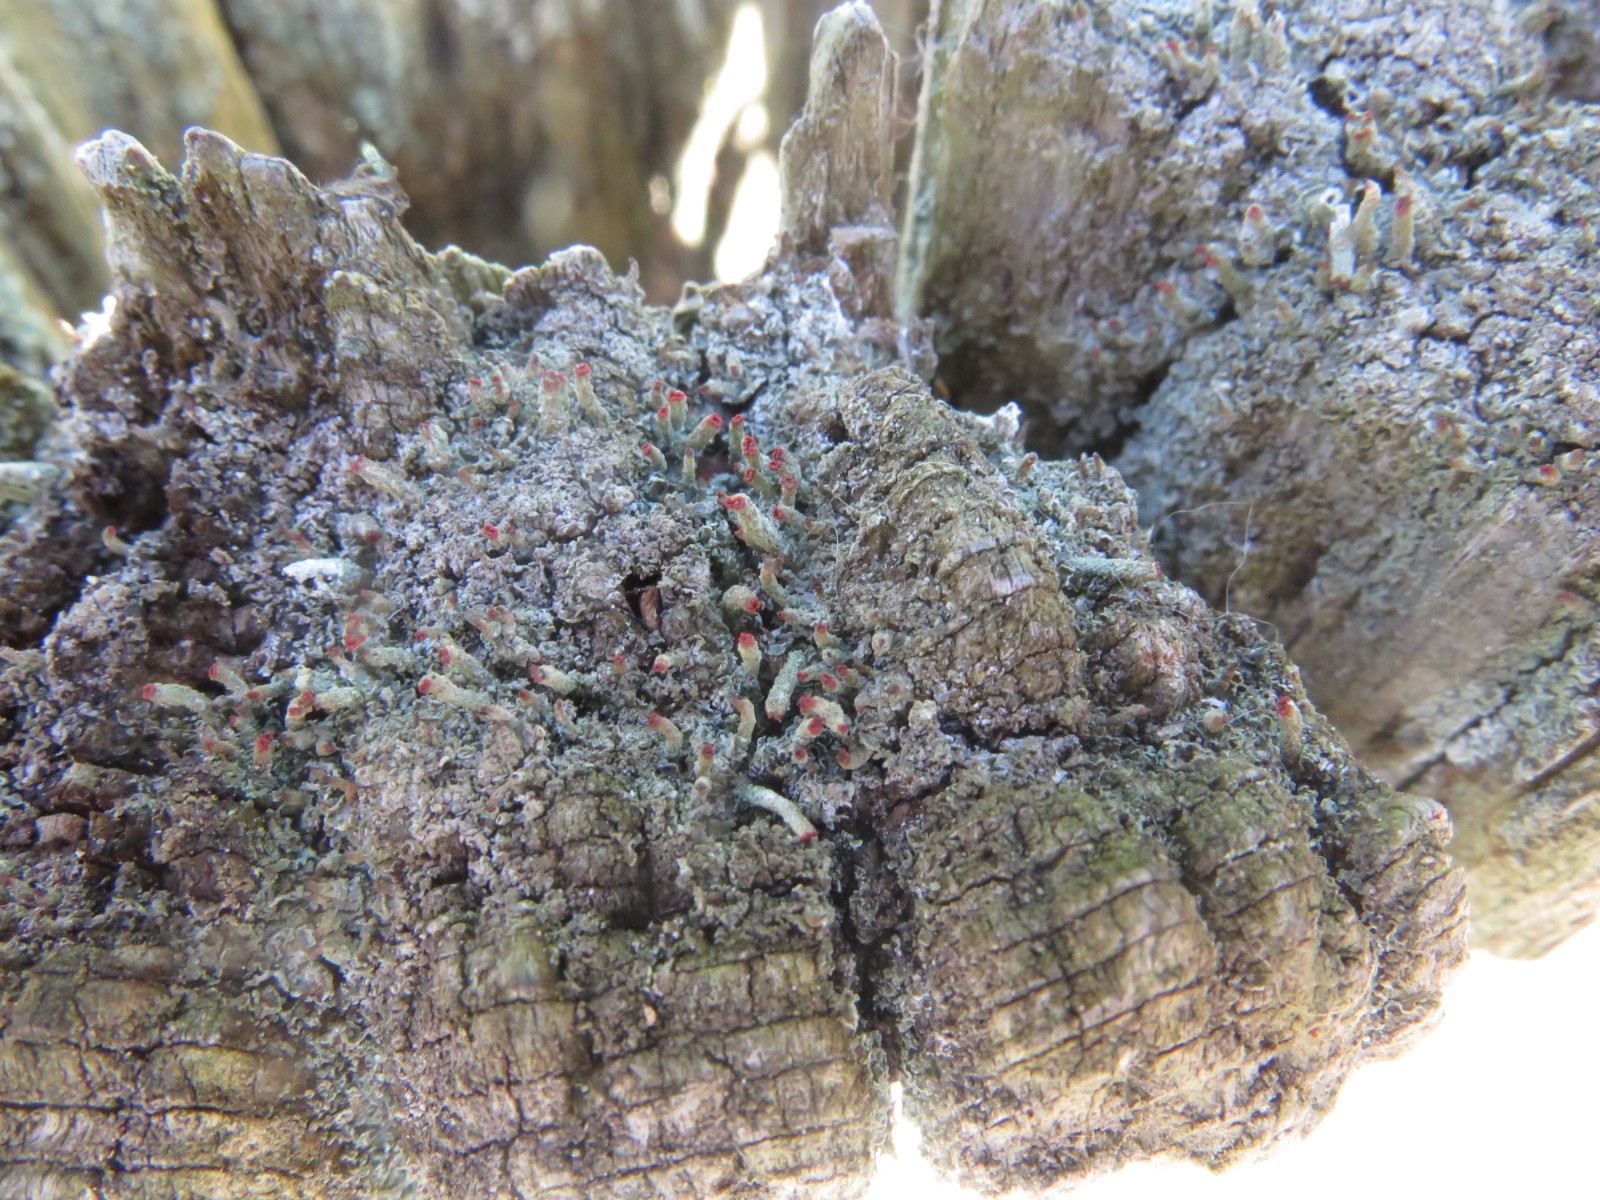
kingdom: Fungi
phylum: Ascomycota
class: Lecanoromycetes
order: Lecanorales
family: Cladoniaceae
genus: Cladonia
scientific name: Cladonia floerkeana
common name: lakrød bægerlav
